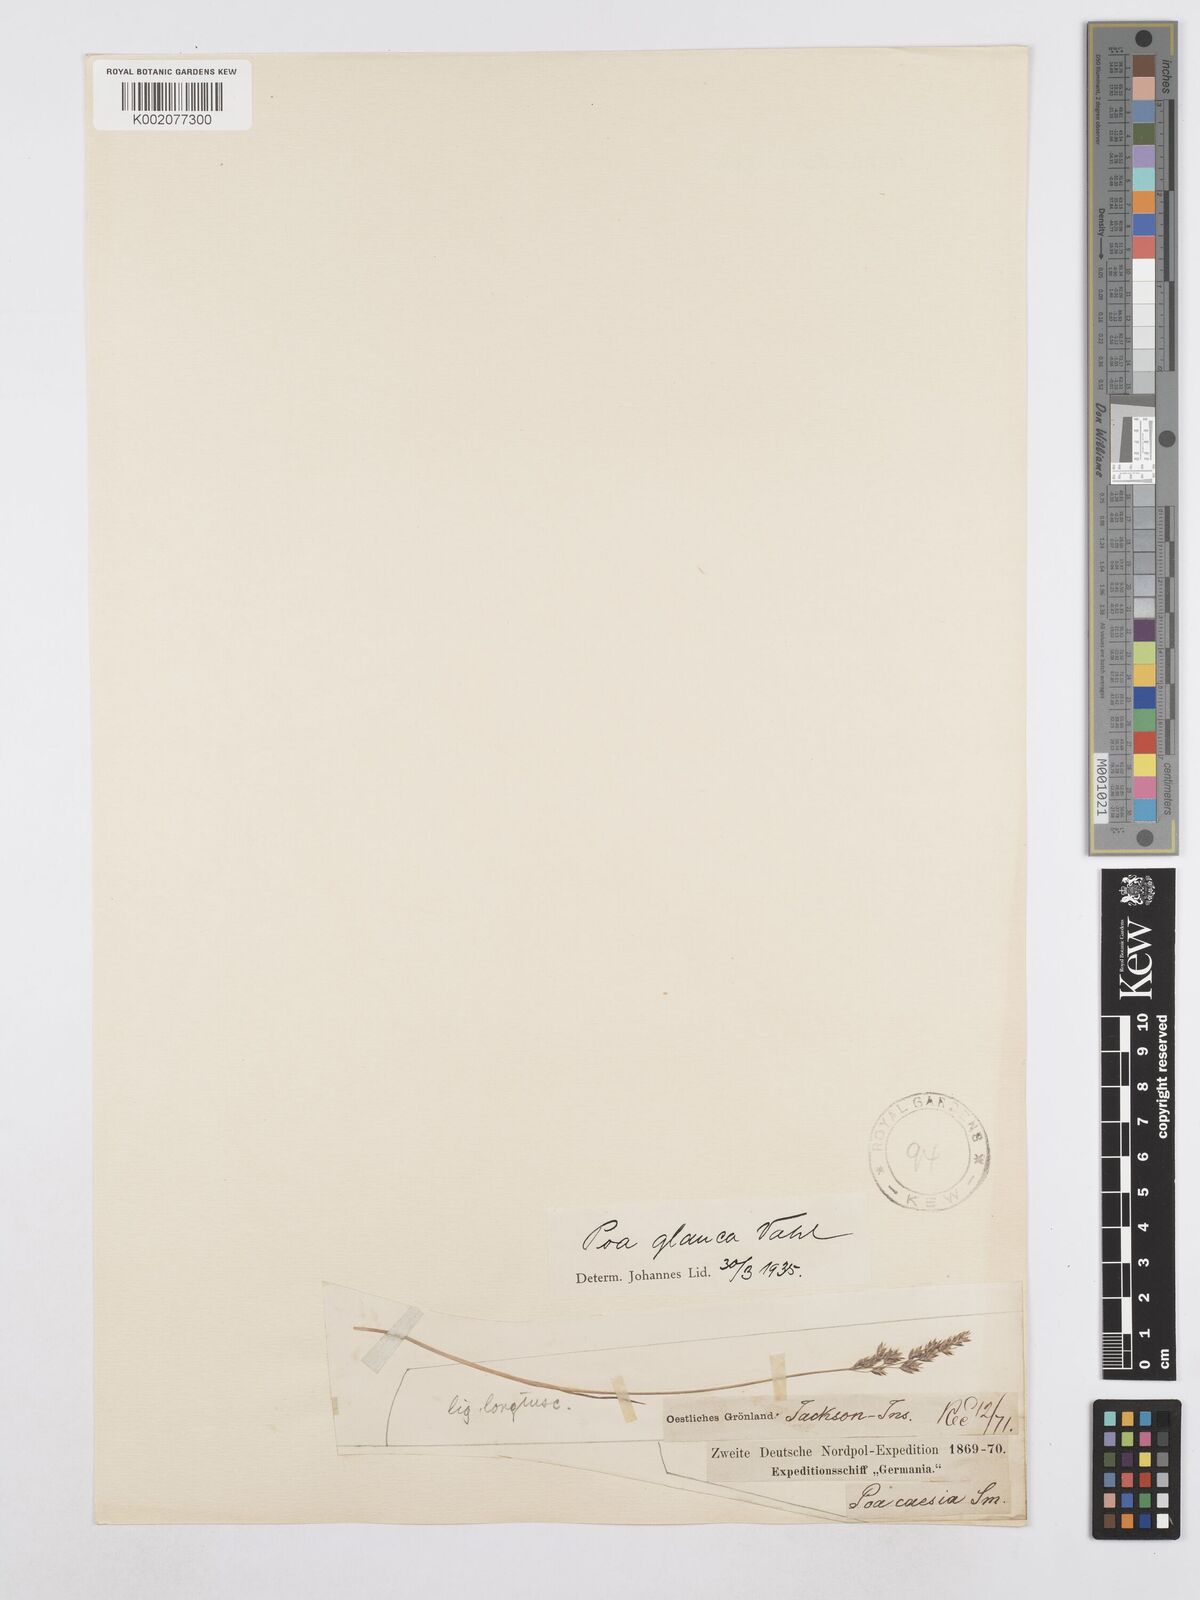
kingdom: Plantae
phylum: Tracheophyta
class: Liliopsida
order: Poales
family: Poaceae
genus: Poa
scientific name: Poa glauca
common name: Glaucous bluegrass
